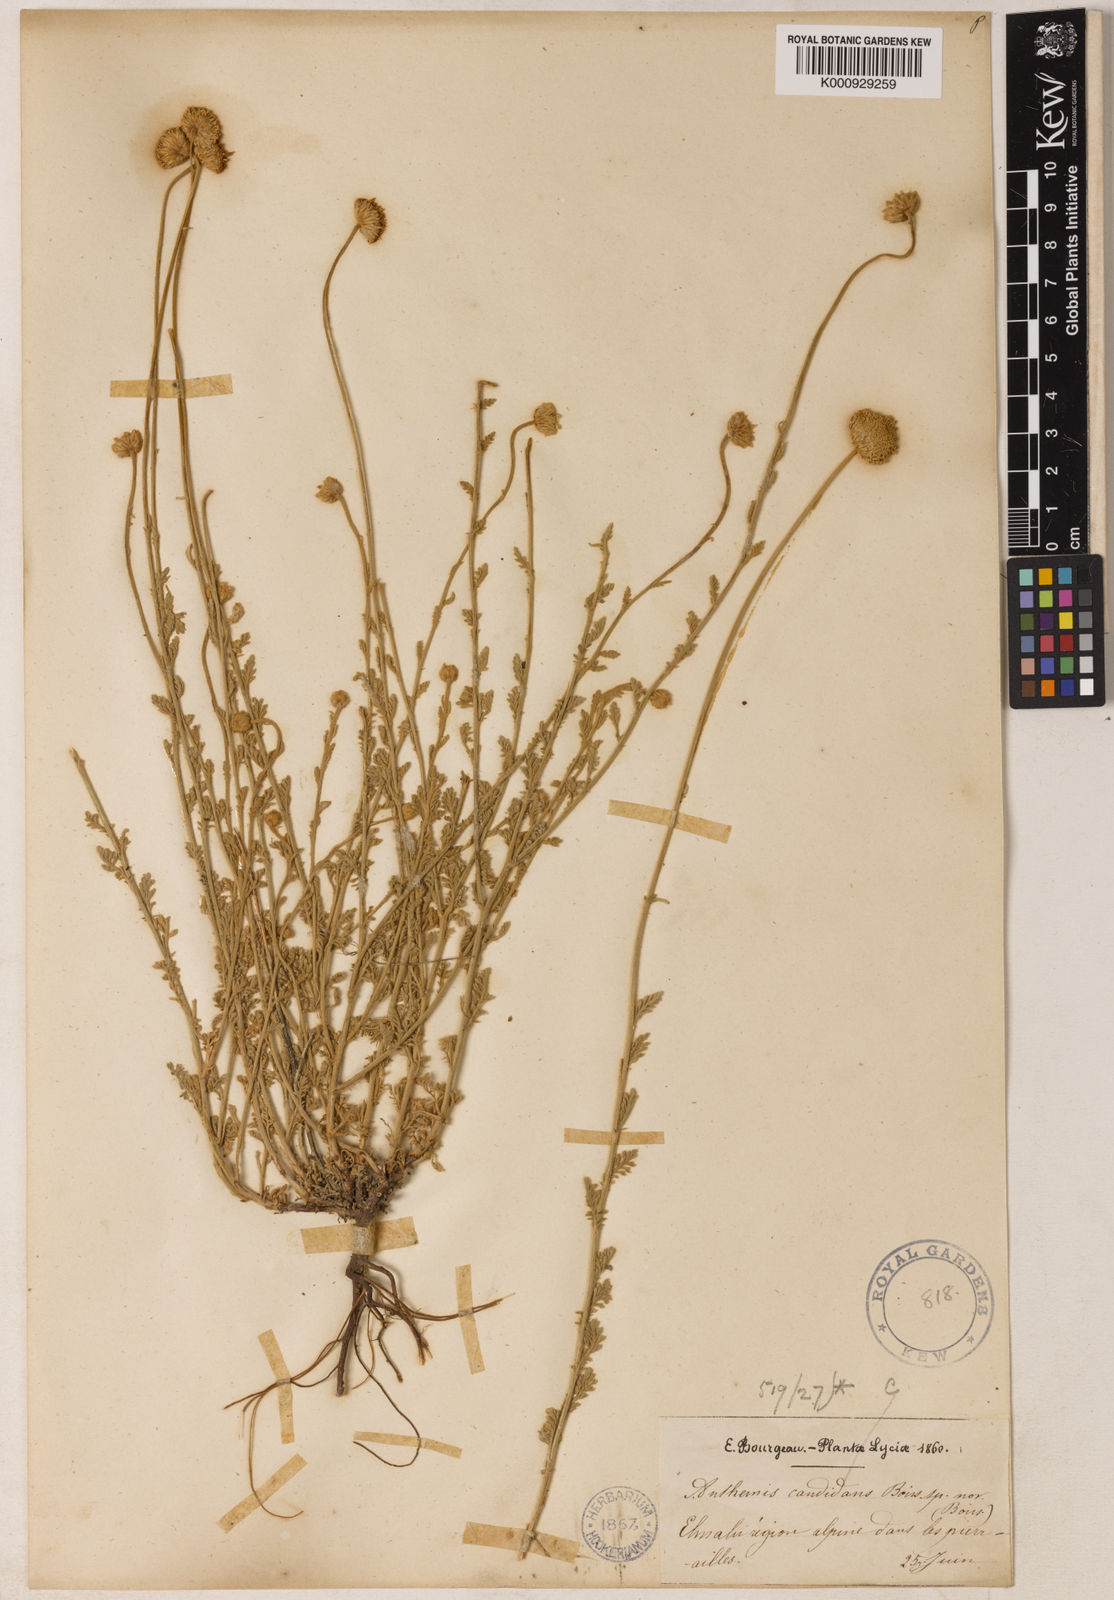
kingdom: Plantae
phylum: Tracheophyta
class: Magnoliopsida
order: Asterales
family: Asteraceae
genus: Anthemis
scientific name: Anthemis cretica
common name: Mountain dog-daisy
